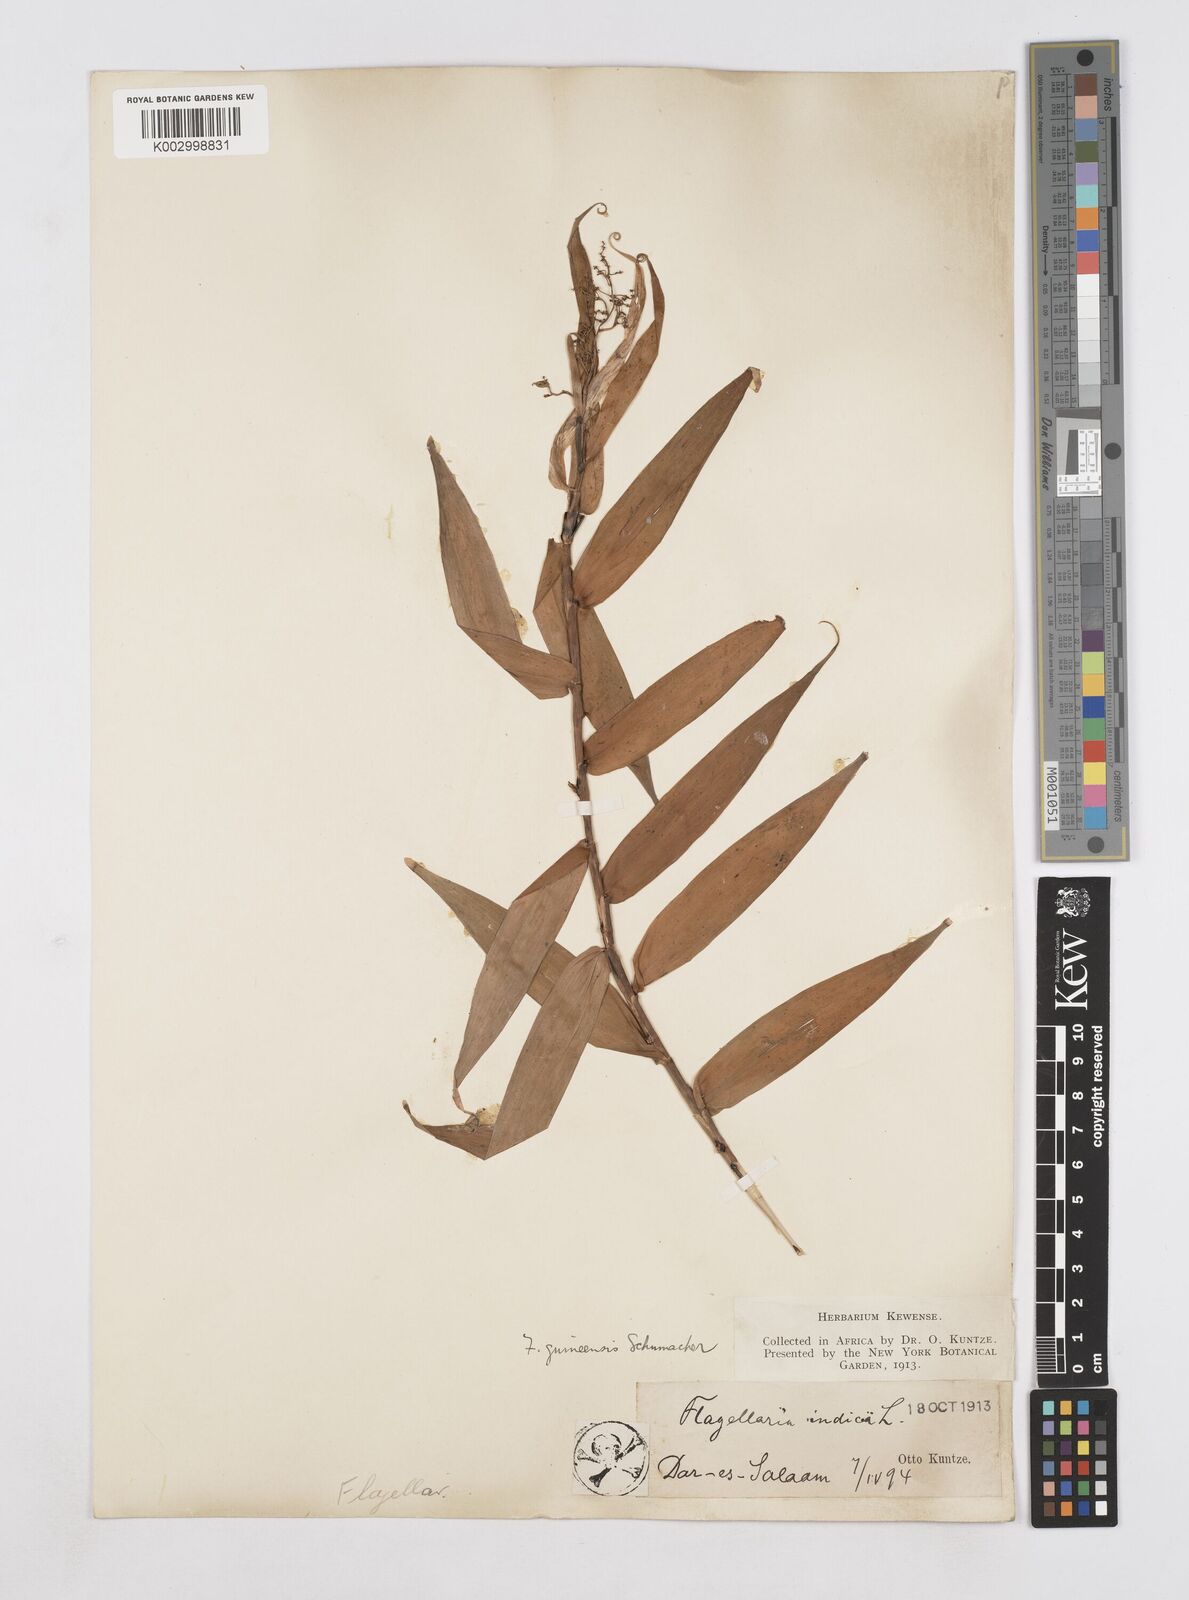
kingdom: Plantae
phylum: Tracheophyta
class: Liliopsida
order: Poales
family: Flagellariaceae
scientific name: Flagellariaceae
